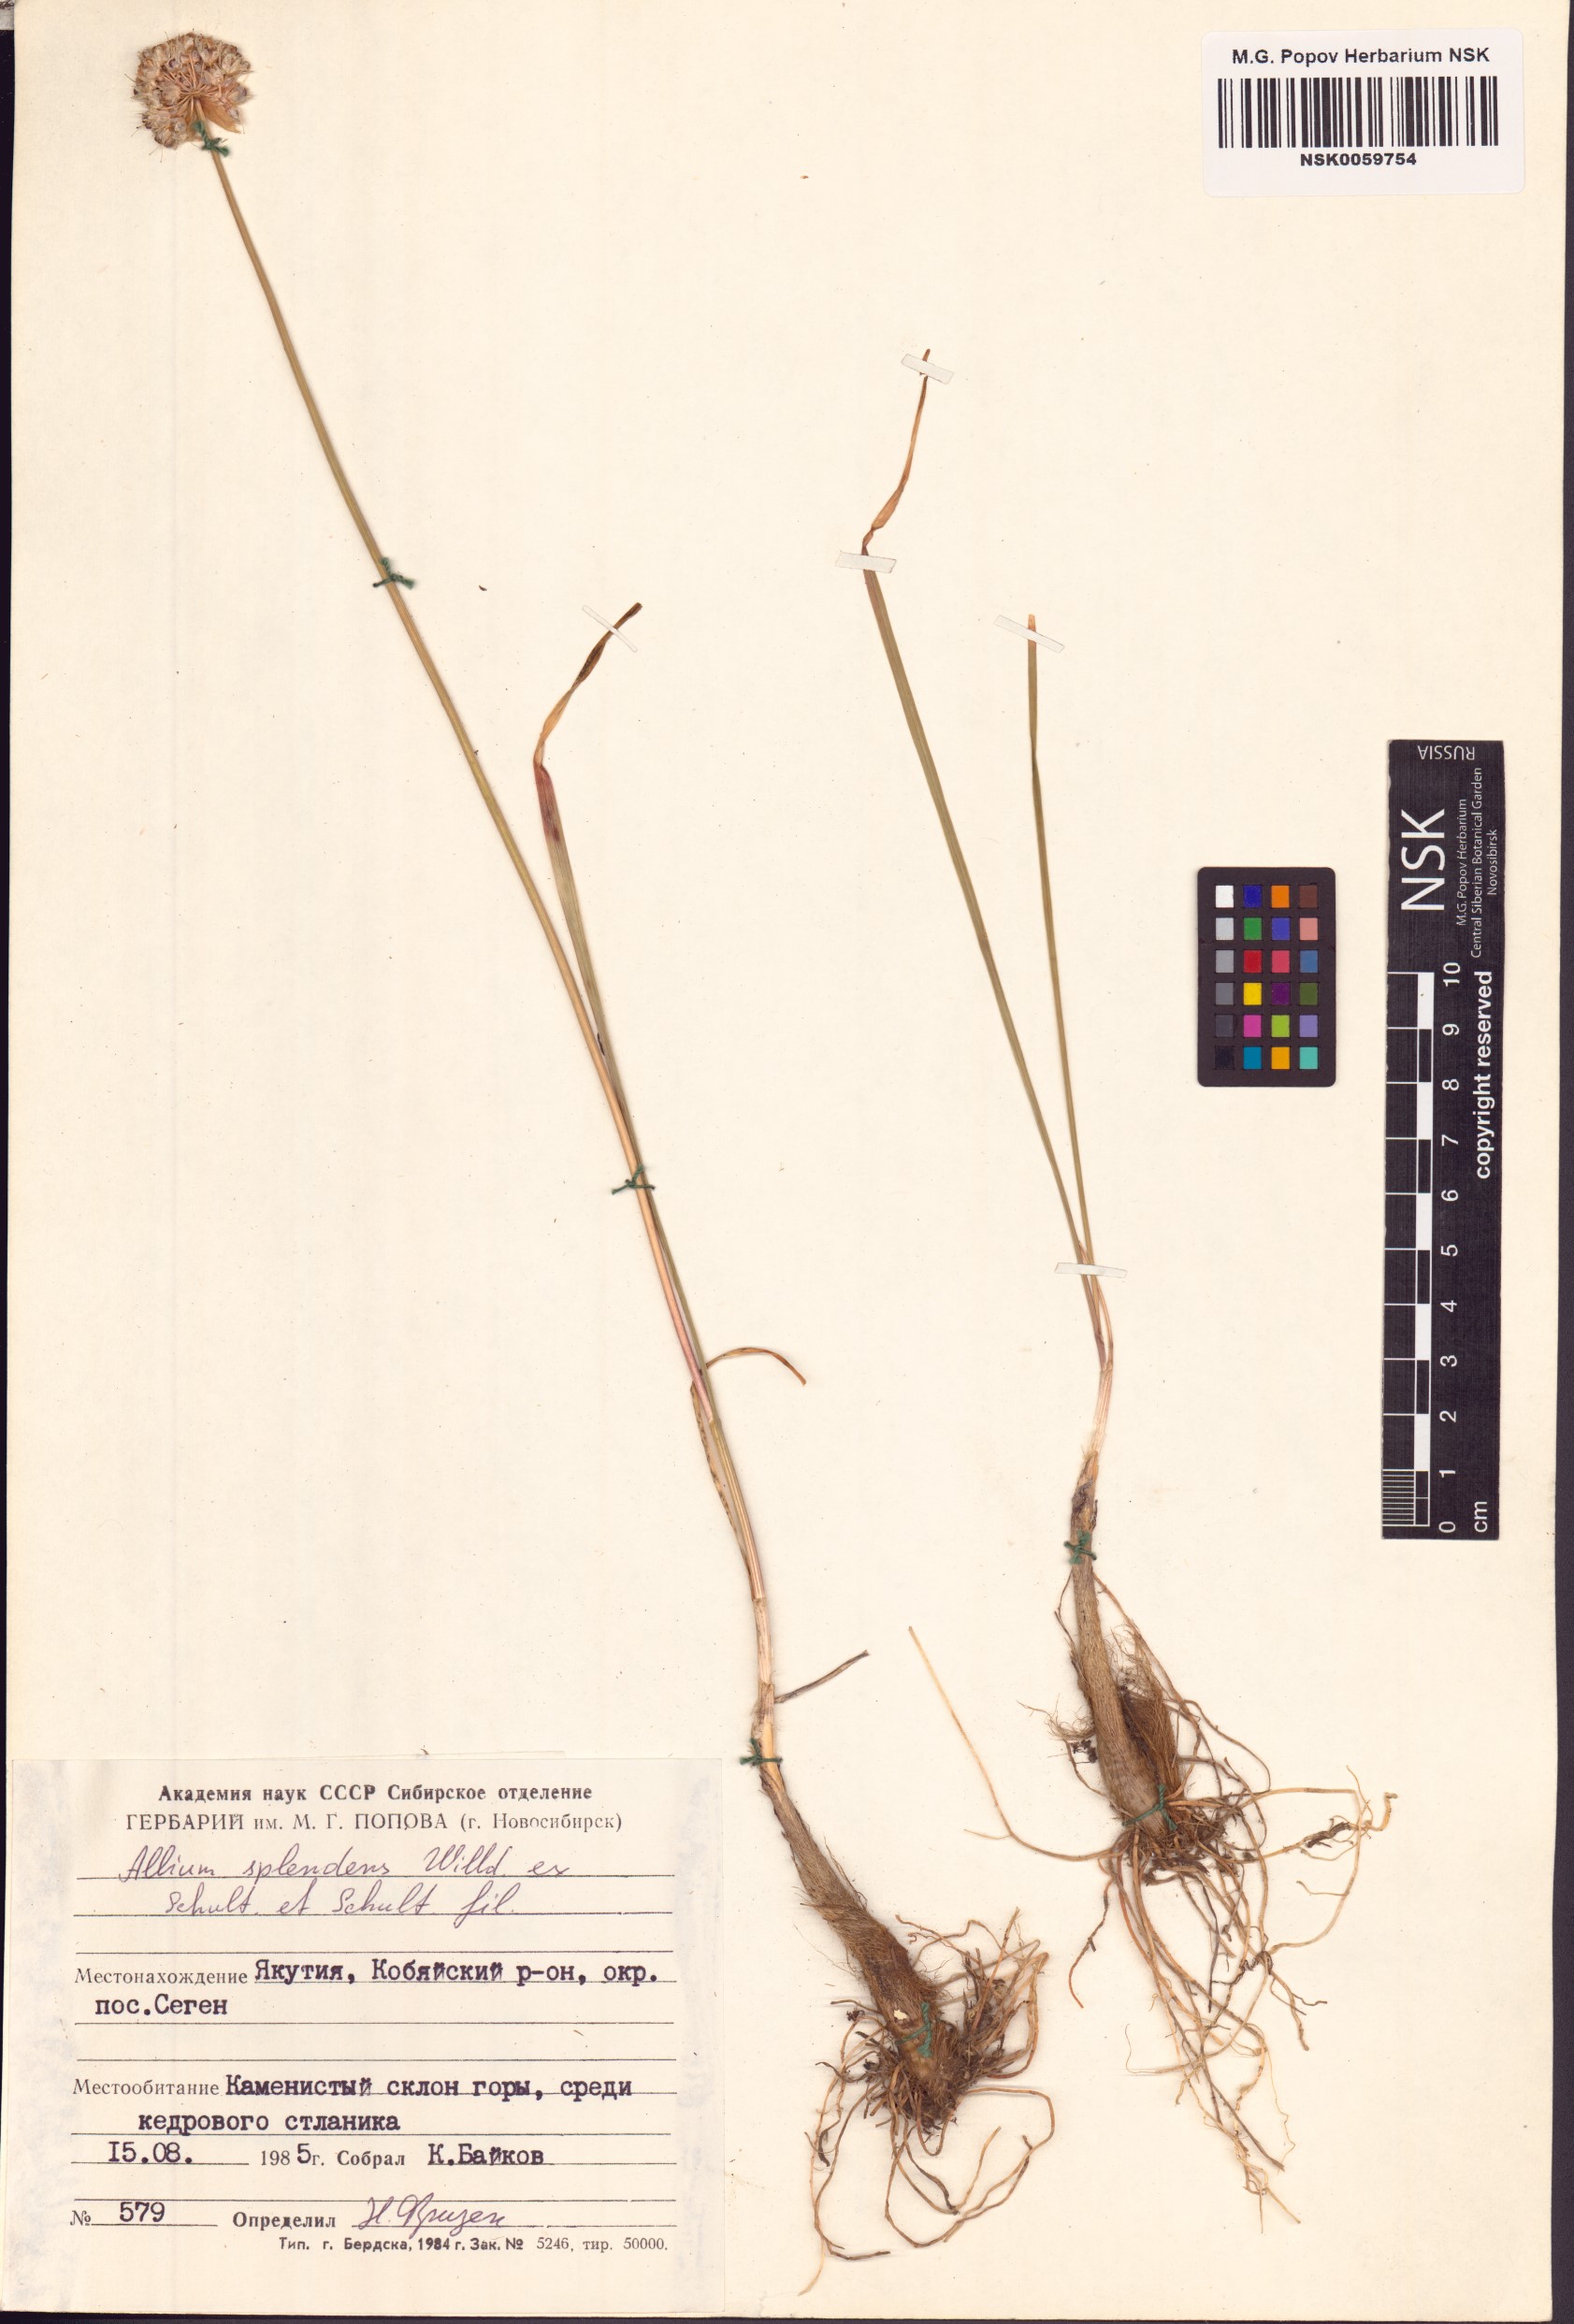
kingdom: Plantae
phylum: Tracheophyta
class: Liliopsida
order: Asparagales
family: Amaryllidaceae
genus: Allium
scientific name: Allium splendens
